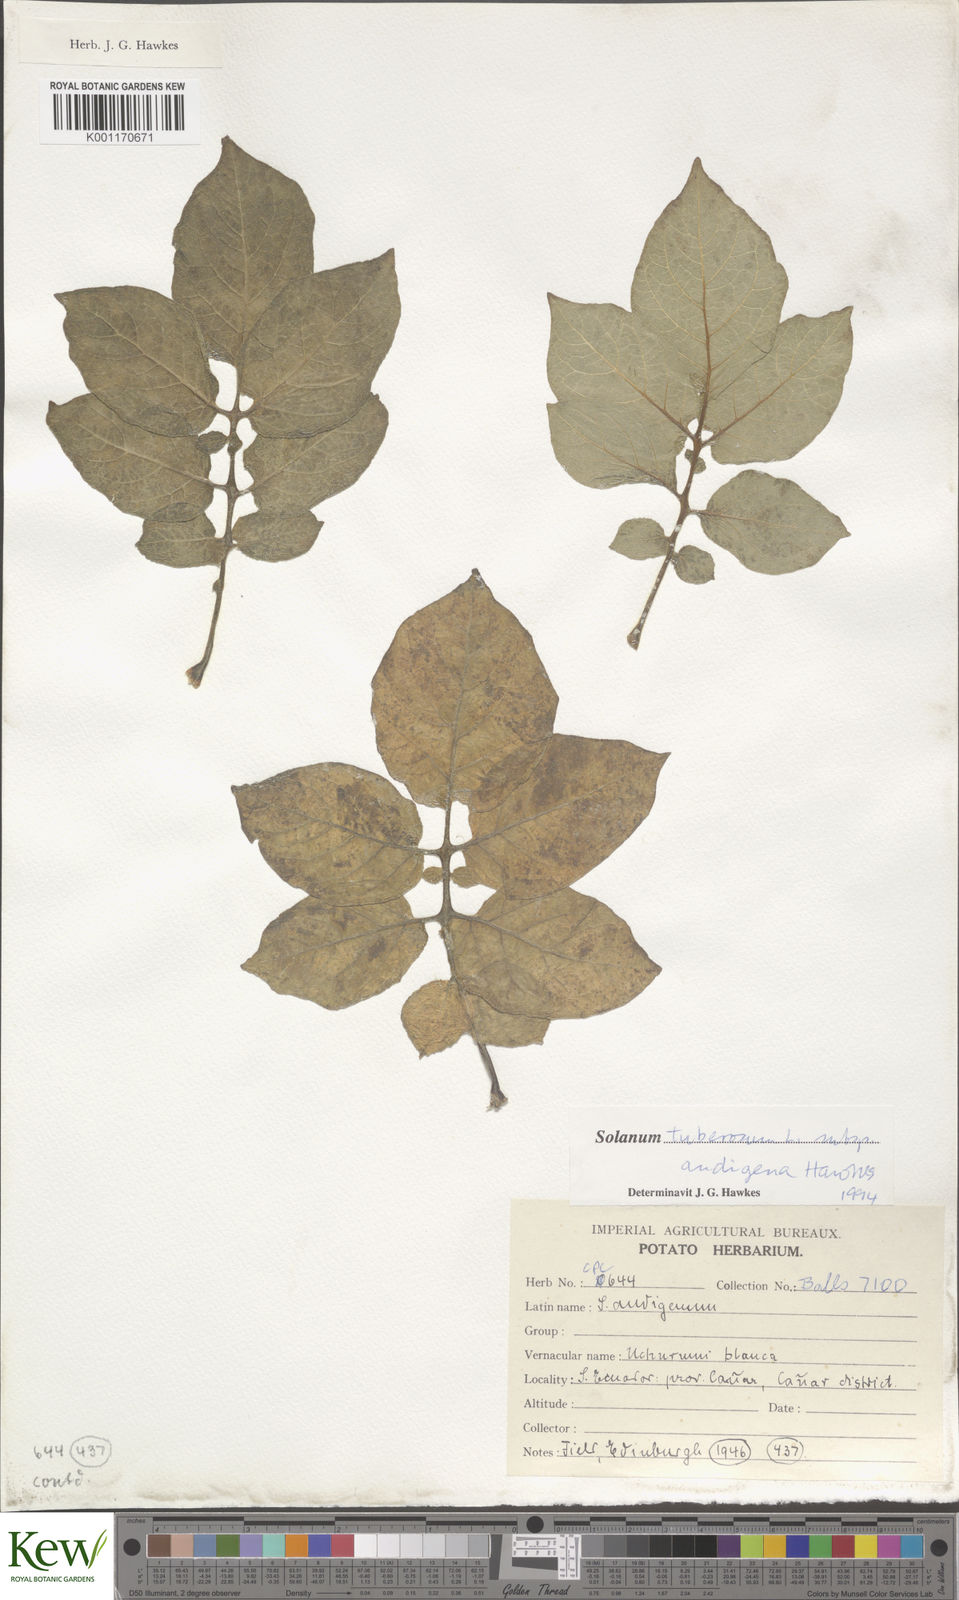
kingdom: Plantae
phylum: Tracheophyta
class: Magnoliopsida
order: Solanales
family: Solanaceae
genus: Solanum
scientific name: Solanum tuberosum
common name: Potato
